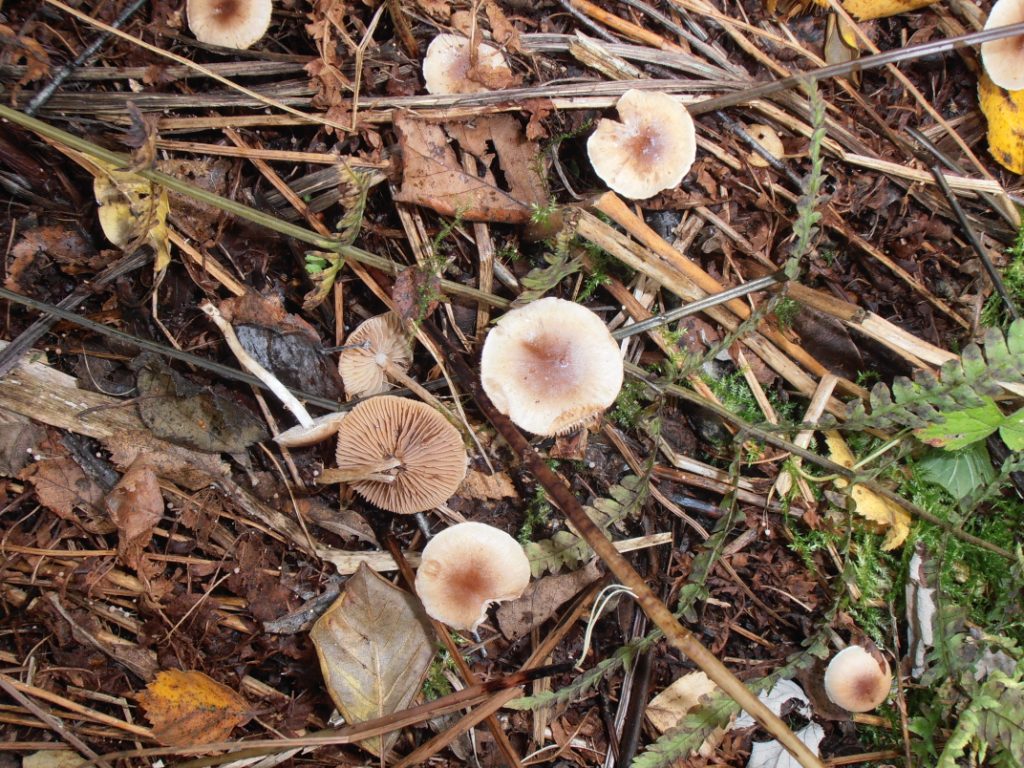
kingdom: Fungi
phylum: Basidiomycota
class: Agaricomycetes
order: Agaricales
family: Hymenogastraceae
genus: Hebeloma
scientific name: Hebeloma pusillum
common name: mose-tåreblad
